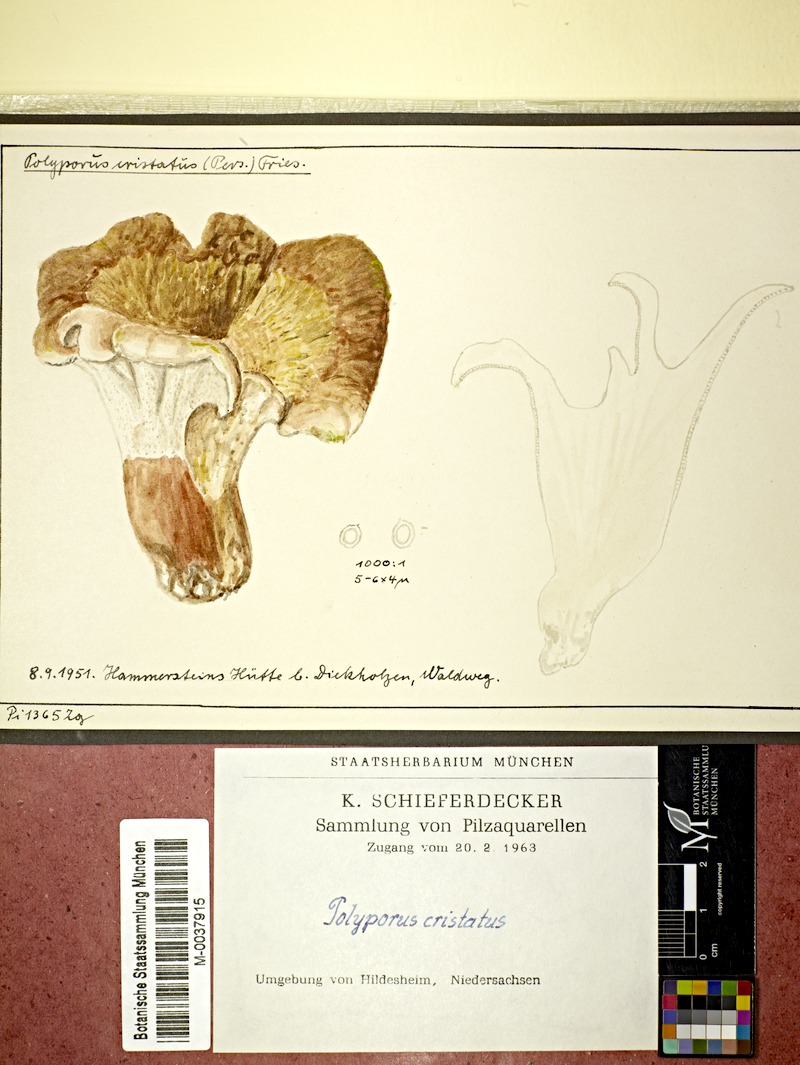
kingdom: Fungi
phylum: Basidiomycota
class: Agaricomycetes
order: Russulales
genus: Laeticutis
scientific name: Laeticutis cristata
